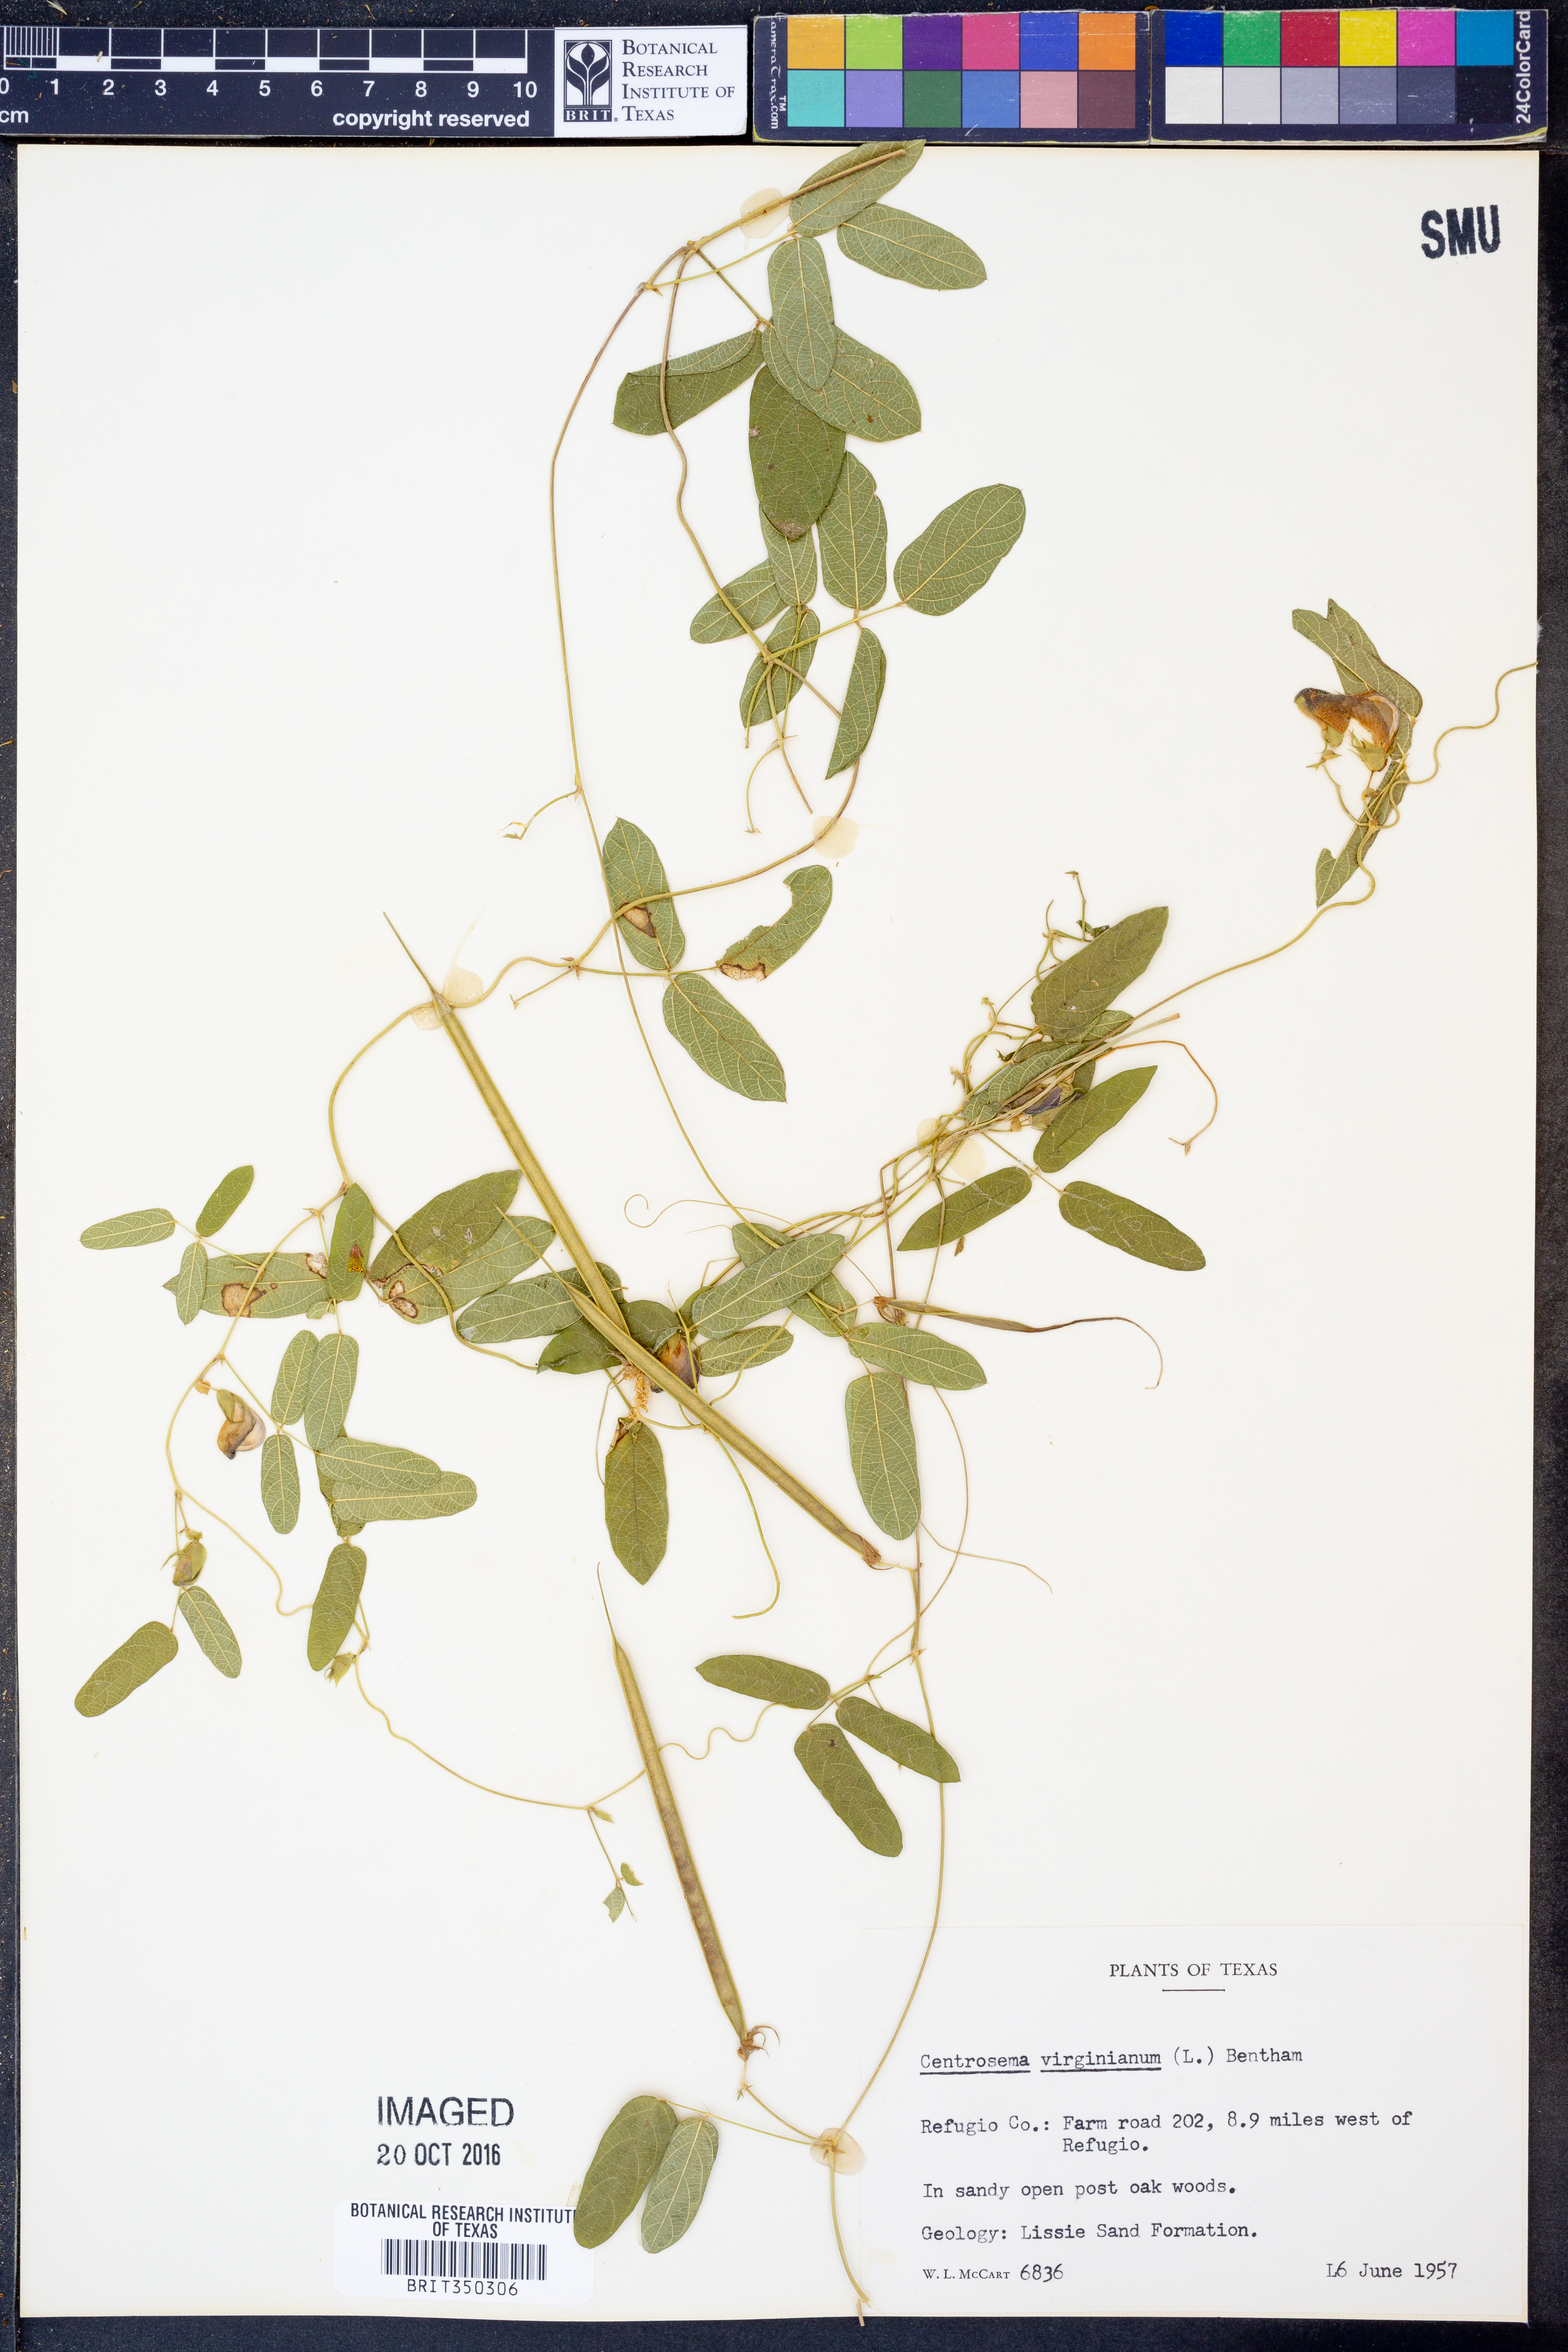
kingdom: Plantae
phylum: Tracheophyta
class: Magnoliopsida
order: Fabales
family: Fabaceae
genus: Centrosema
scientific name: Centrosema virginianum
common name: Butterfly-pea
